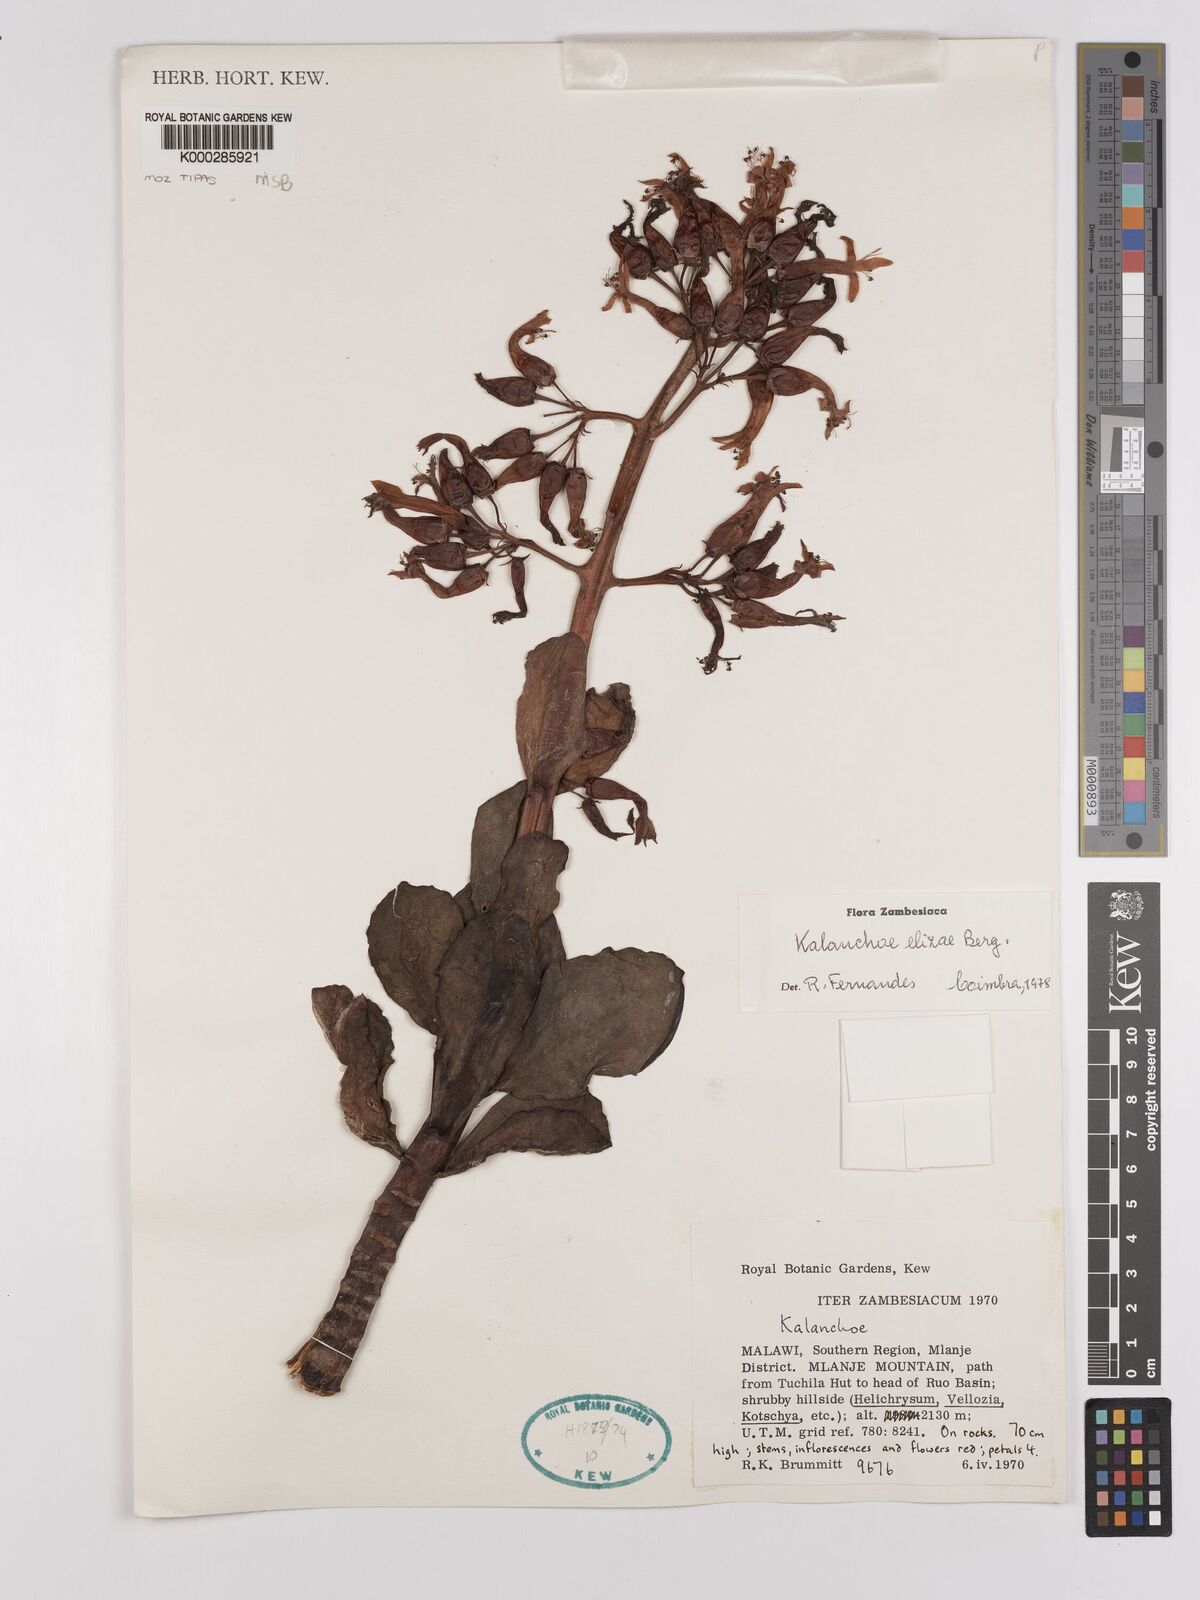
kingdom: Plantae
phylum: Tracheophyta
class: Magnoliopsida
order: Saxifragales
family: Crassulaceae
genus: Kalanchoe
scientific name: Kalanchoe elizae
